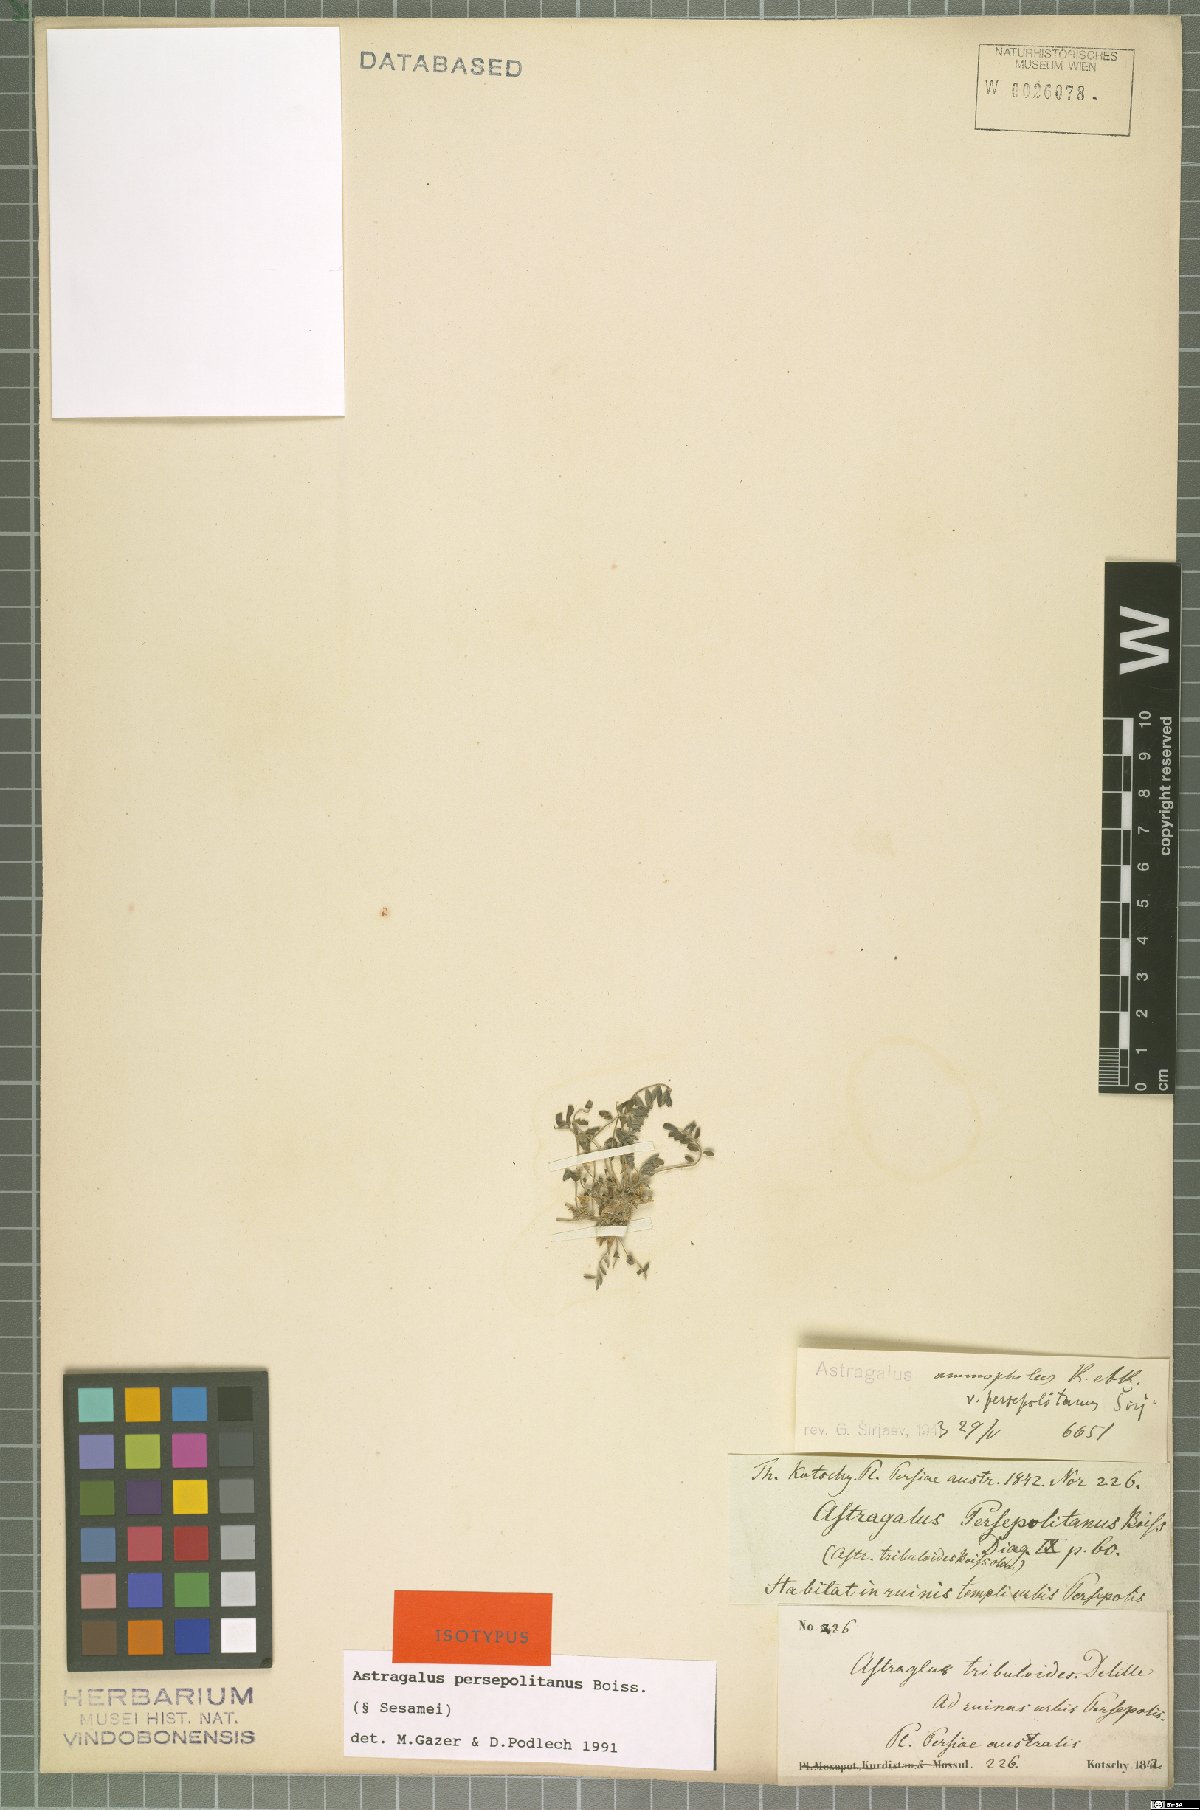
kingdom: Plantae
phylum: Tracheophyta
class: Magnoliopsida
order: Fabales
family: Fabaceae
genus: Astragalus
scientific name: Astragalus ammophilus
